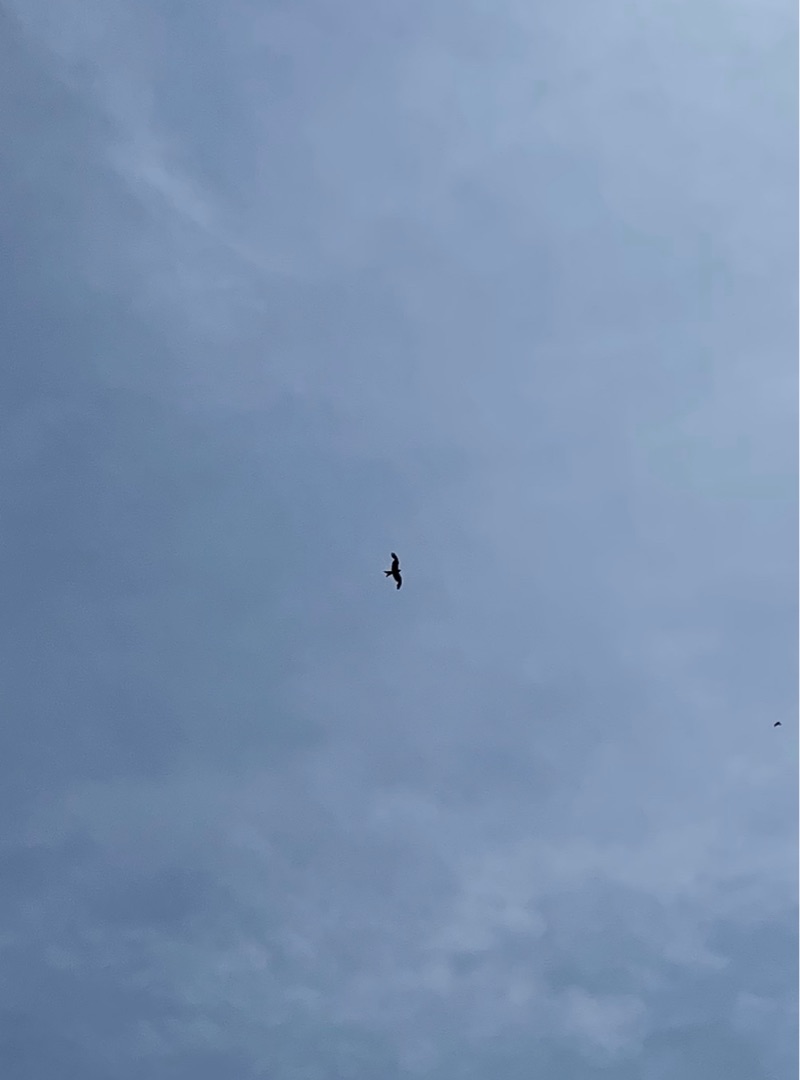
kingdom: Animalia
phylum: Chordata
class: Aves
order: Accipitriformes
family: Accipitridae
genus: Milvus
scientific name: Milvus milvus
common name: Rød glente
